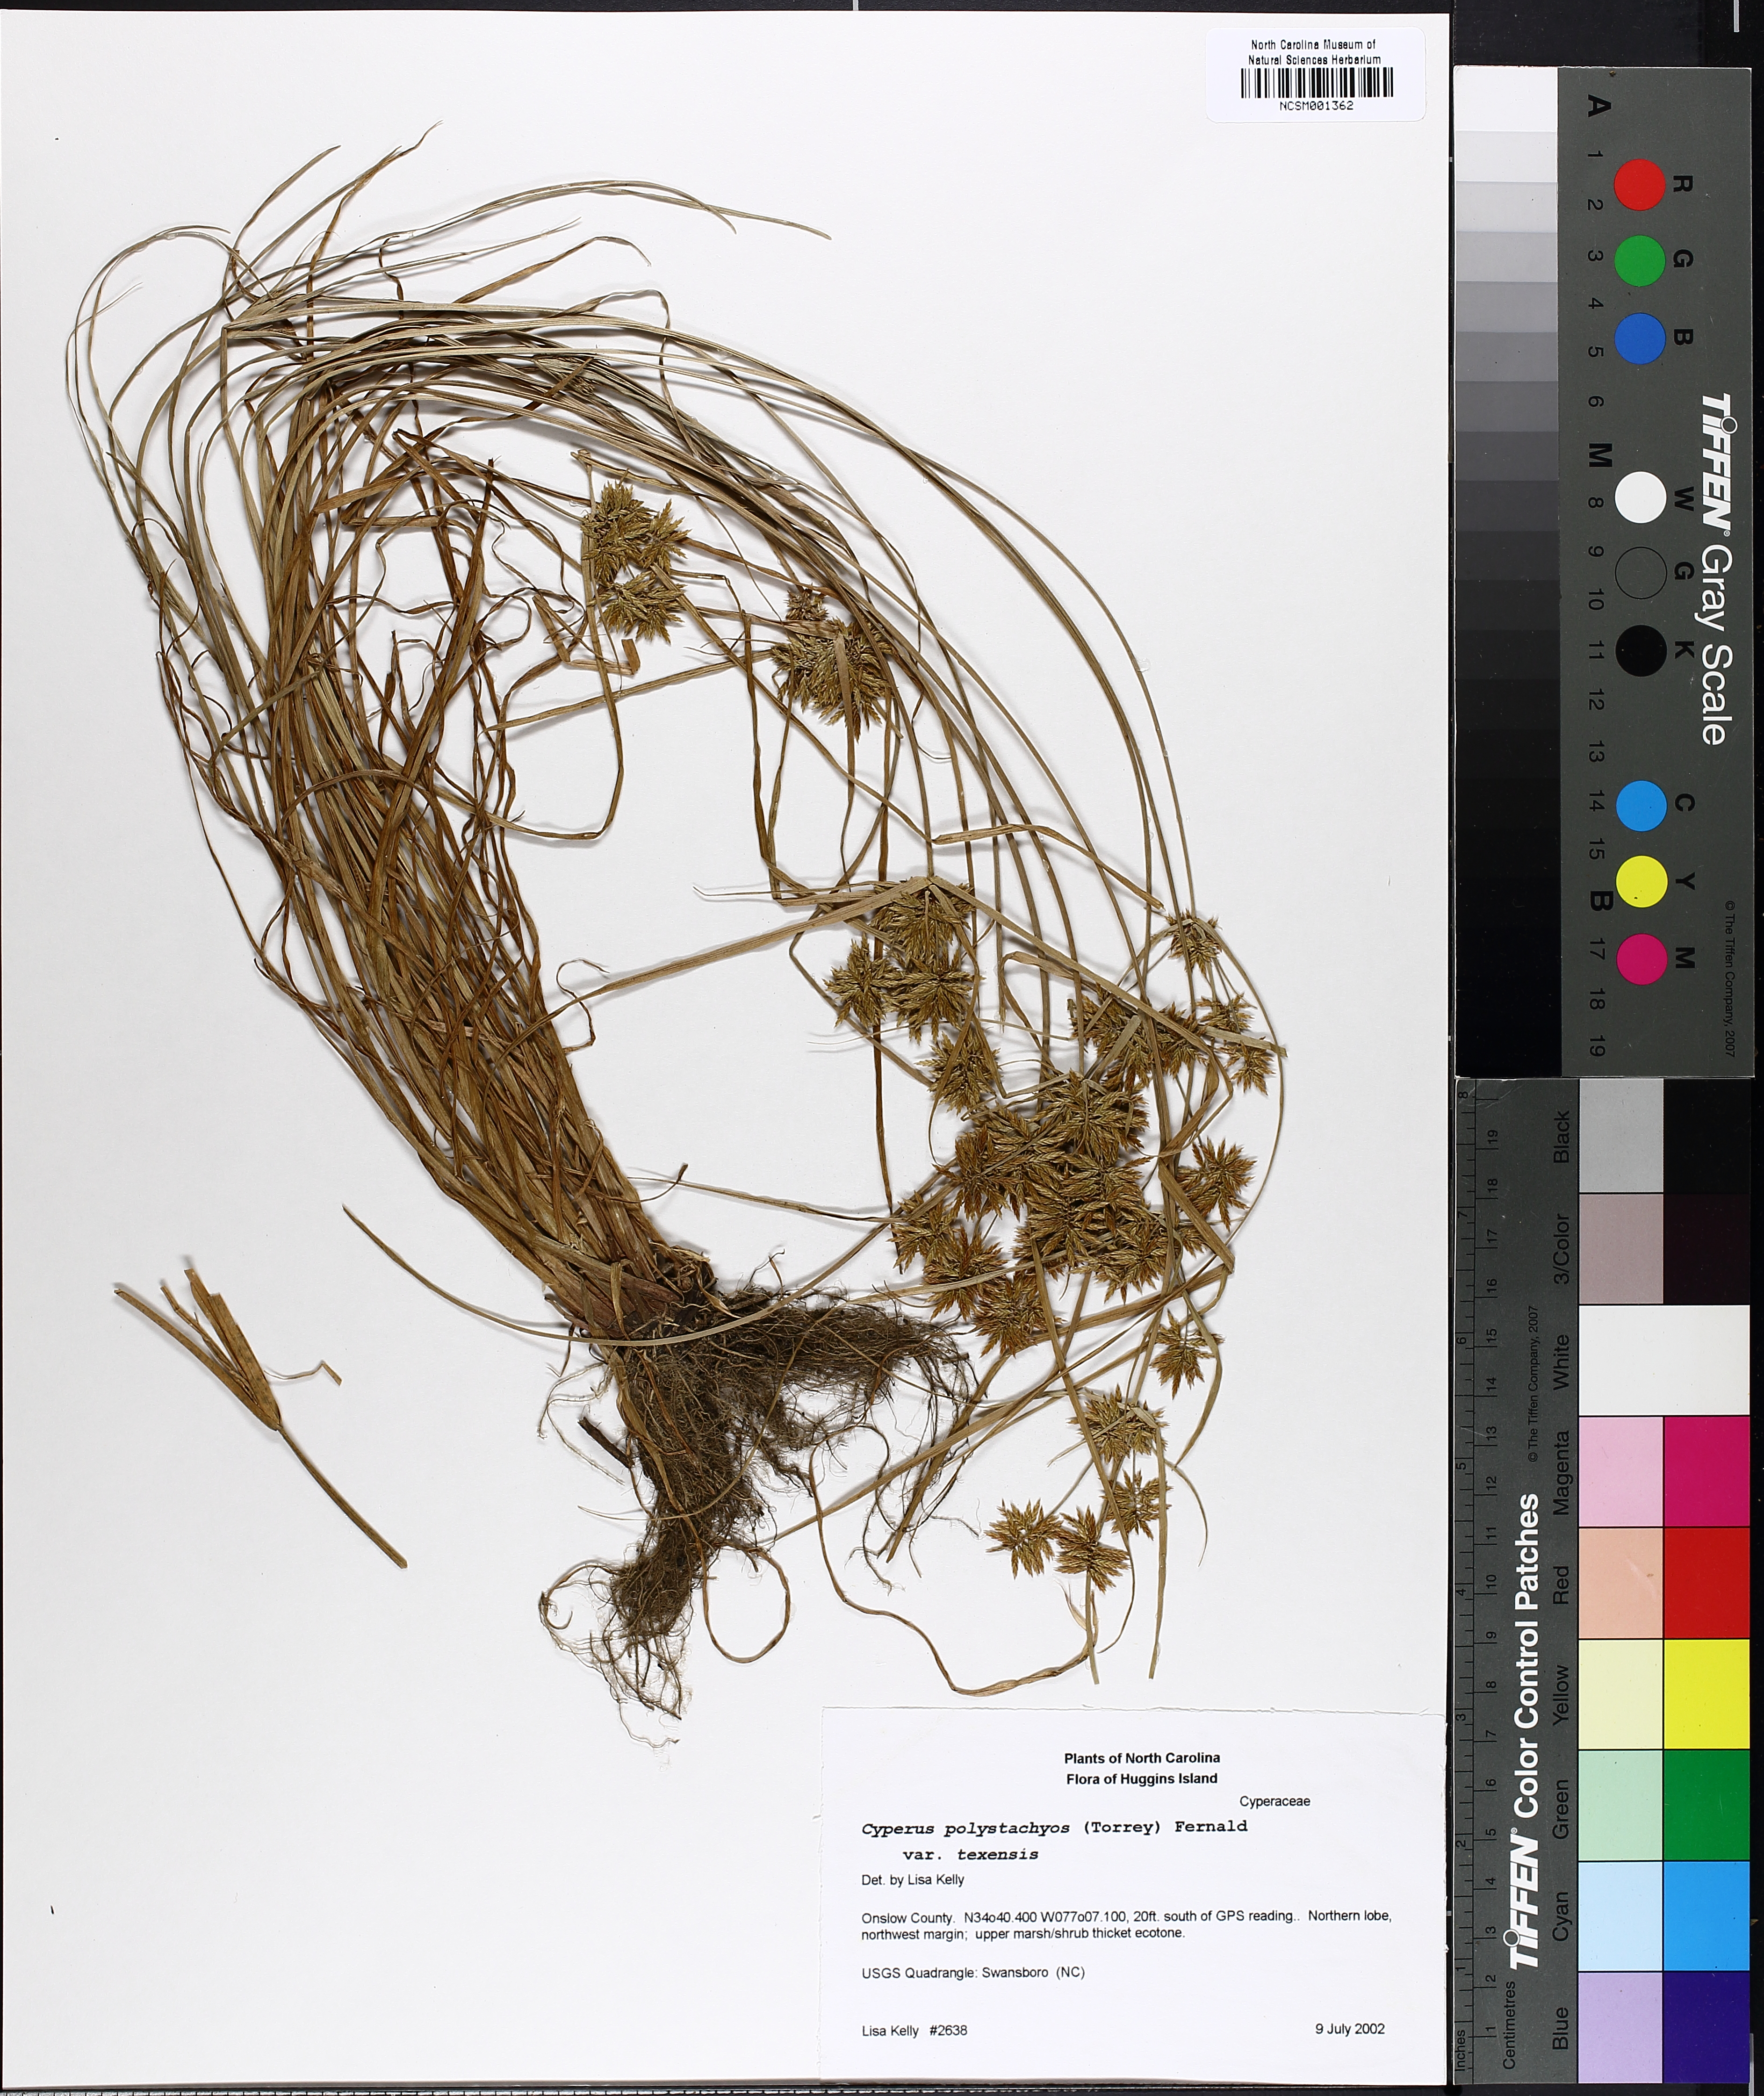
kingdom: Plantae
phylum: Tracheophyta
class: Liliopsida
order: Poales
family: Cyperaceae
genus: Cyperus
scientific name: Cyperus polystachyos
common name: Bunchy flat sedge
